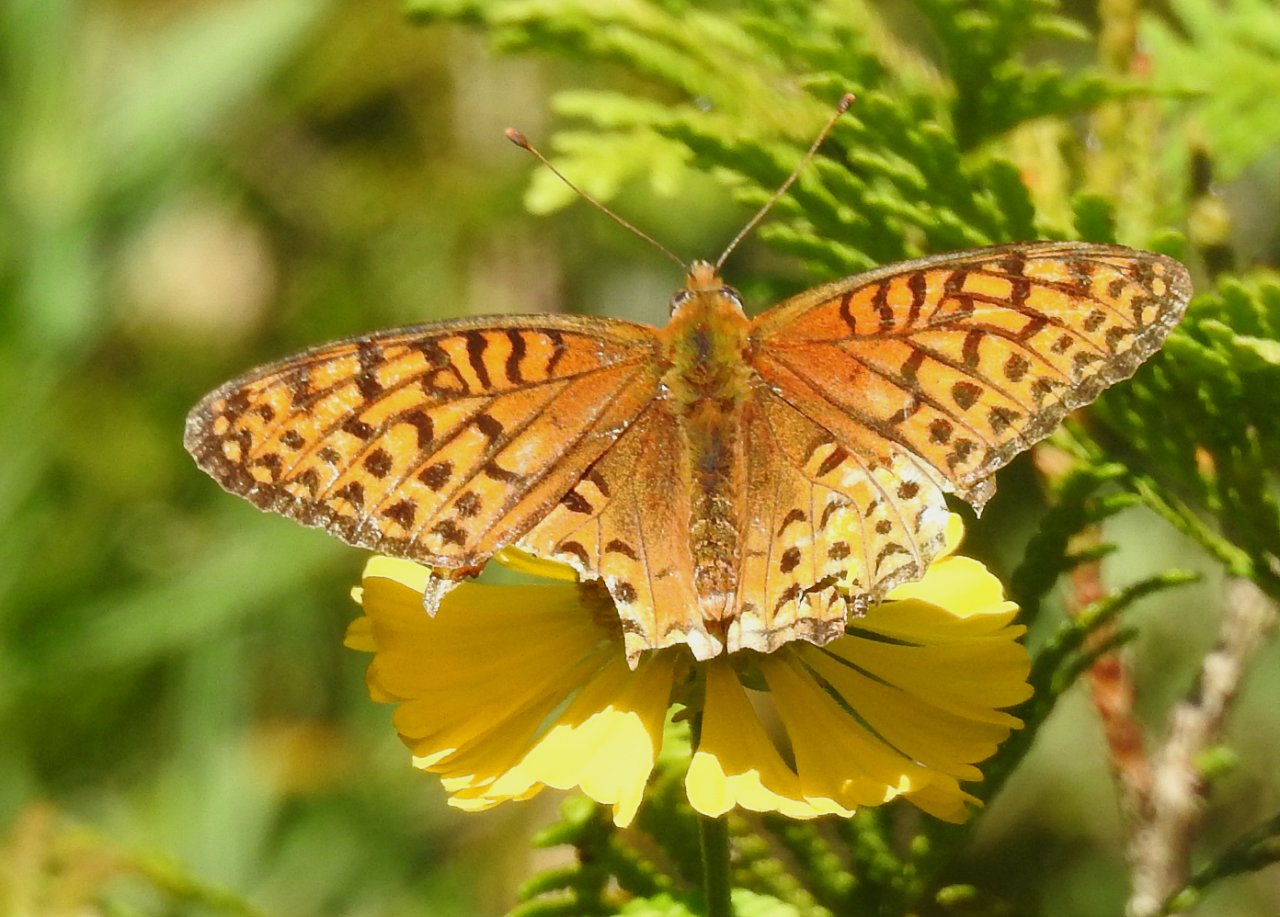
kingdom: Animalia
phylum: Arthropoda
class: Insecta
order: Lepidoptera
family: Nymphalidae
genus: Speyeria
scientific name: Speyeria atlantis
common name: Atlantis Fritillary
